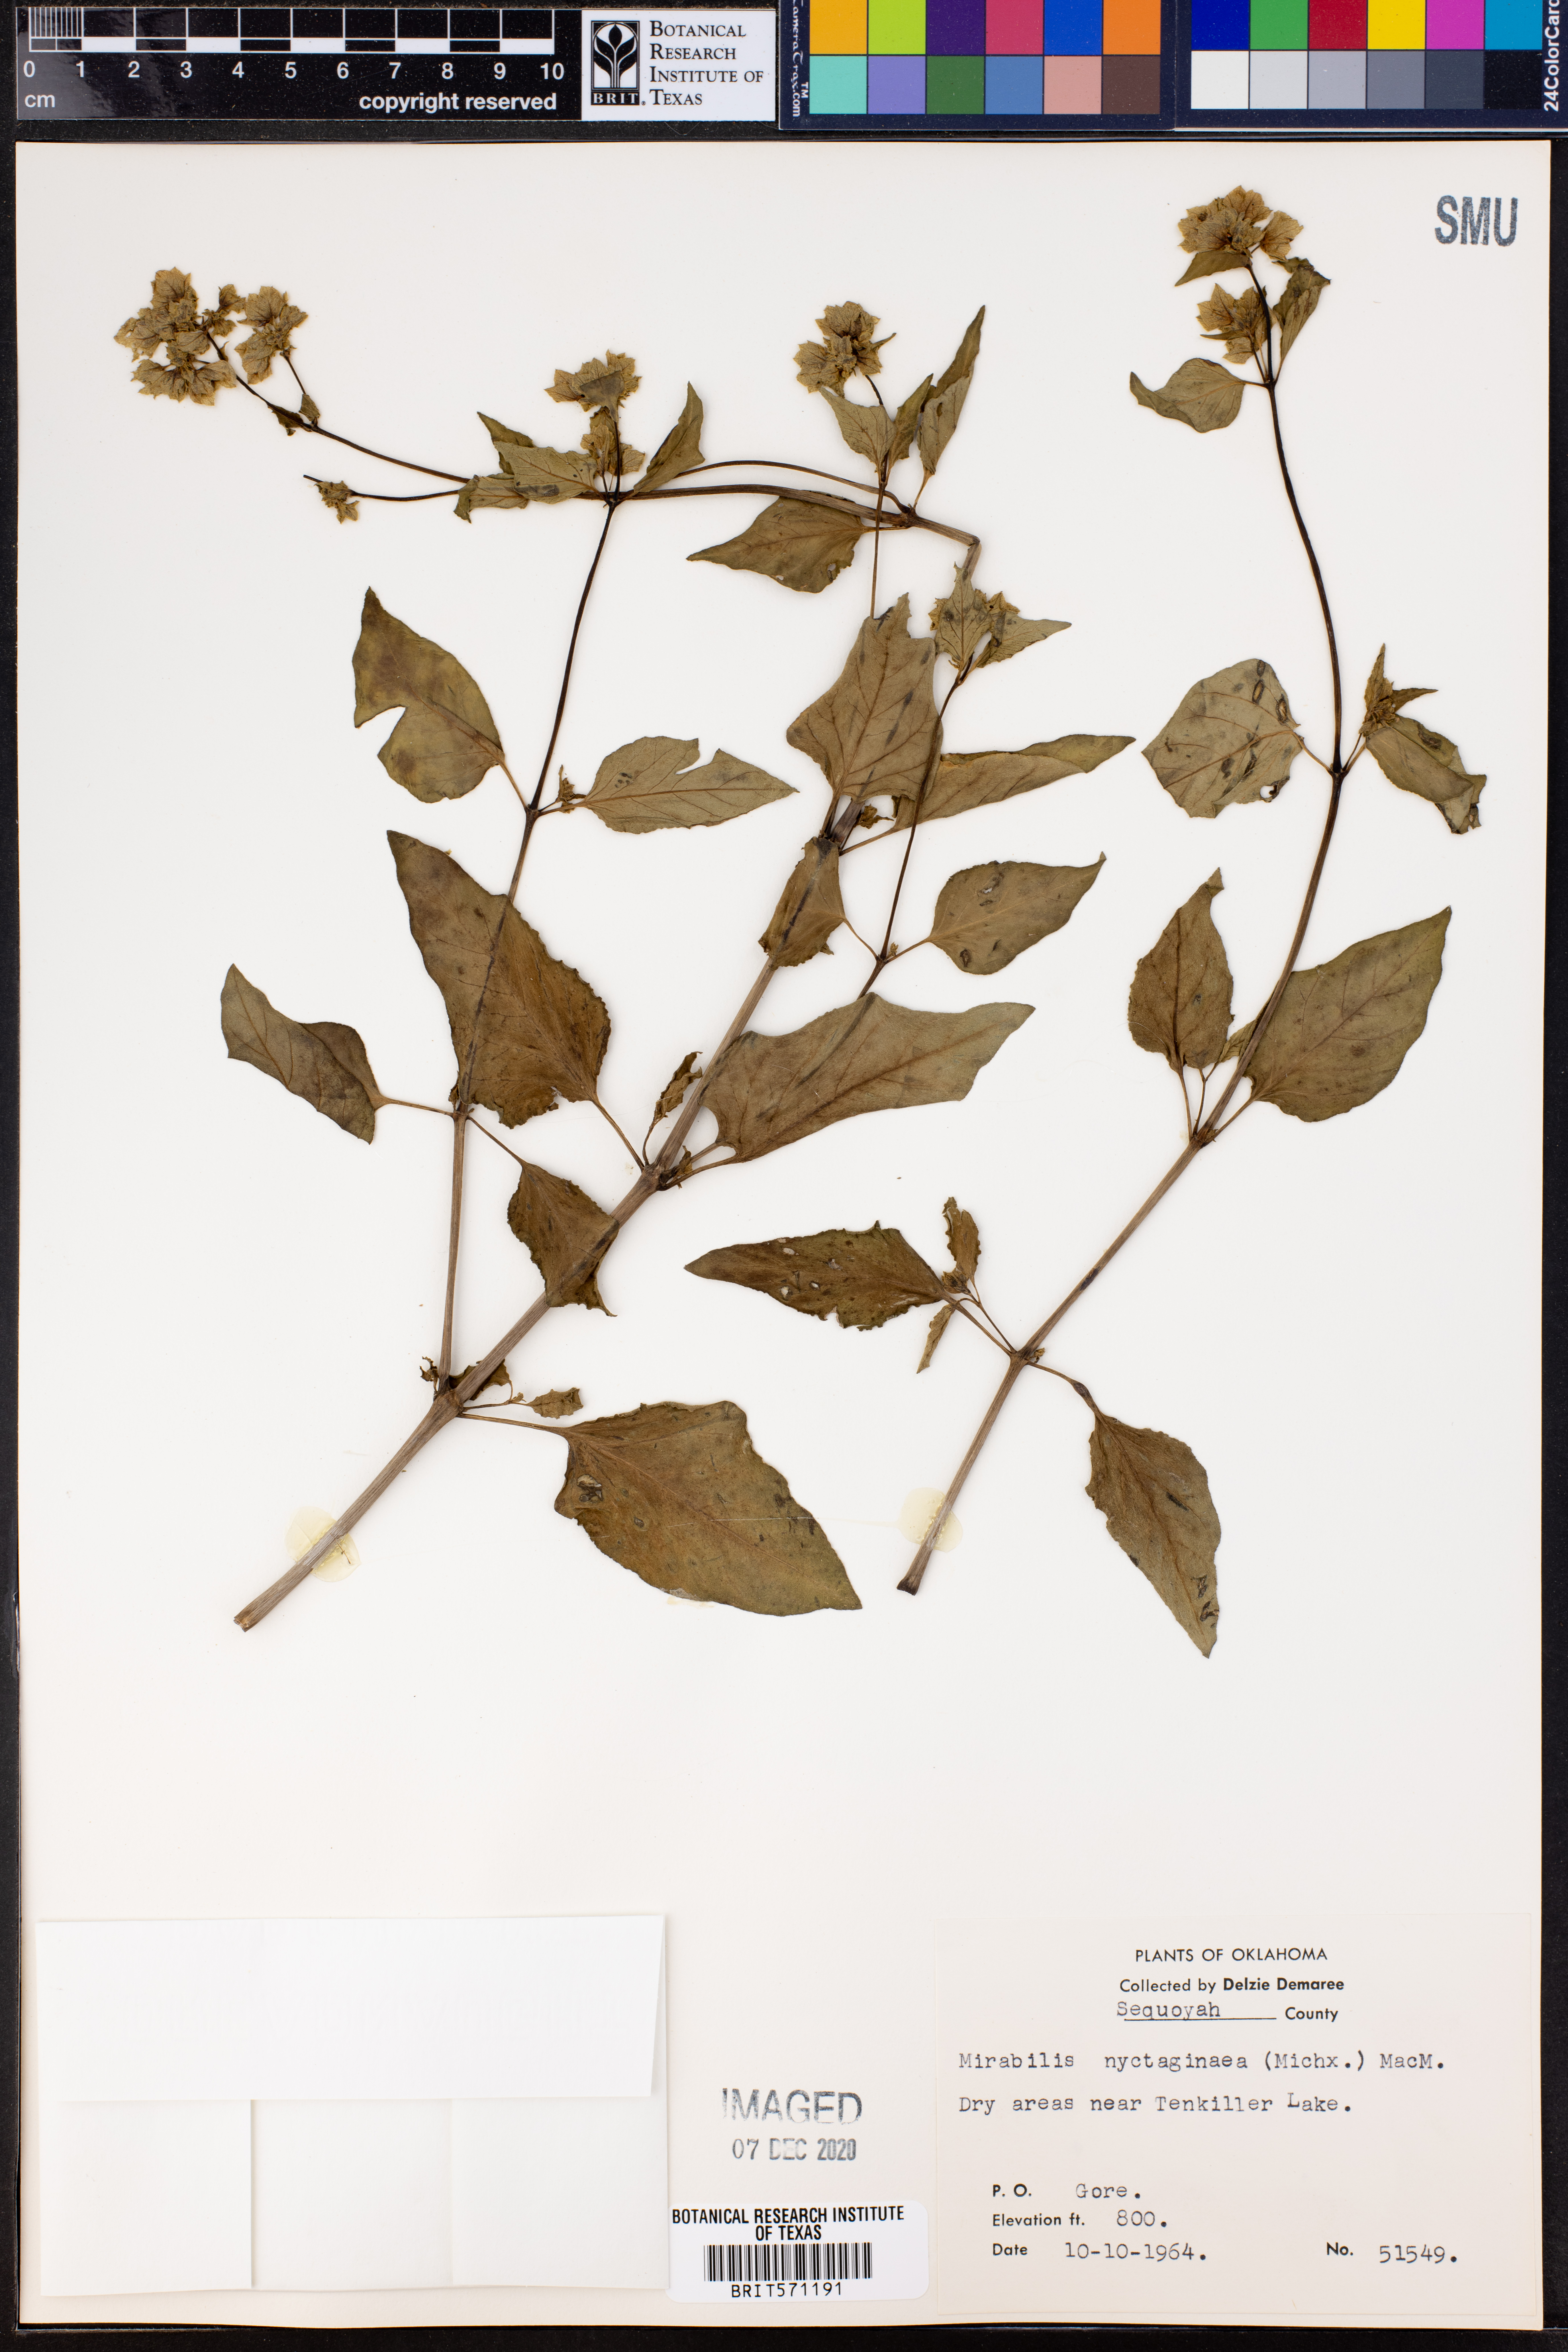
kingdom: Plantae
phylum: Tracheophyta
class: Magnoliopsida
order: Caryophyllales
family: Nyctaginaceae
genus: Mirabilis
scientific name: Mirabilis nyctaginea
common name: Umbrella wort
